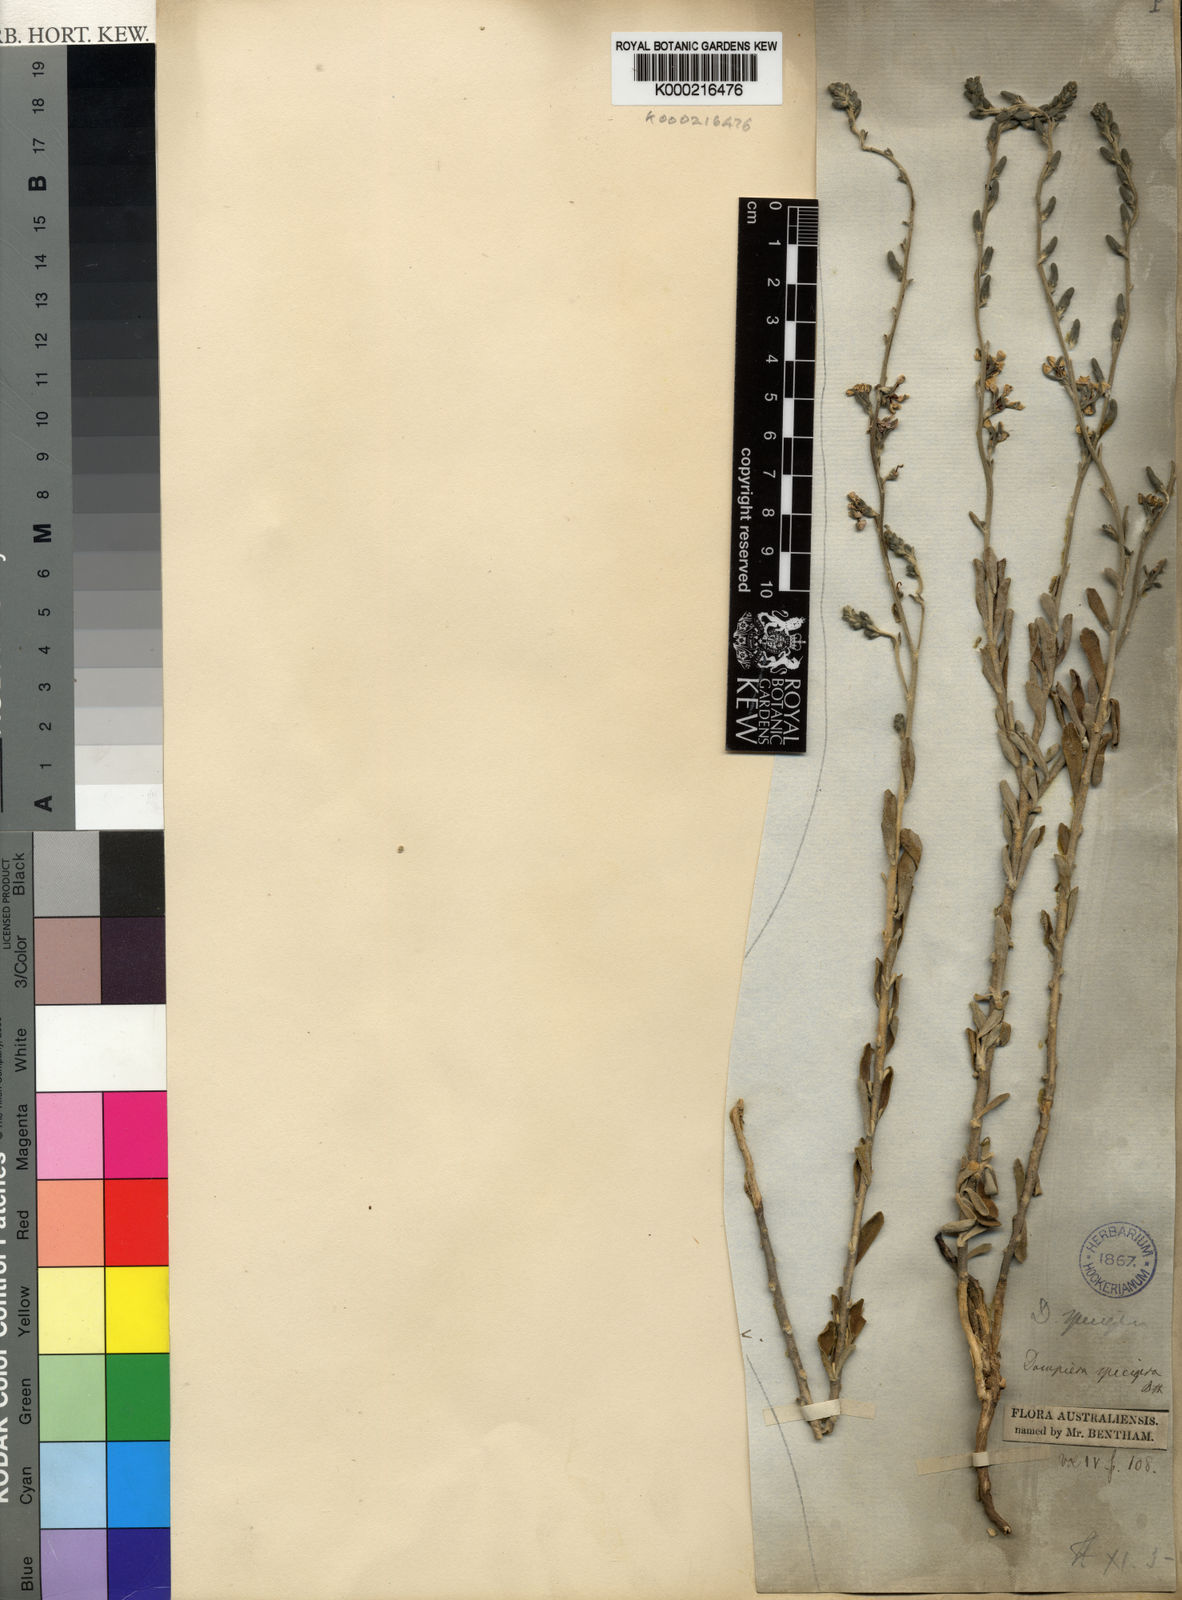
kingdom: Plantae
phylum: Tracheophyta
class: Magnoliopsida
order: Asterales
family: Goodeniaceae
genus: Dampiera
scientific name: Dampiera spicigera
